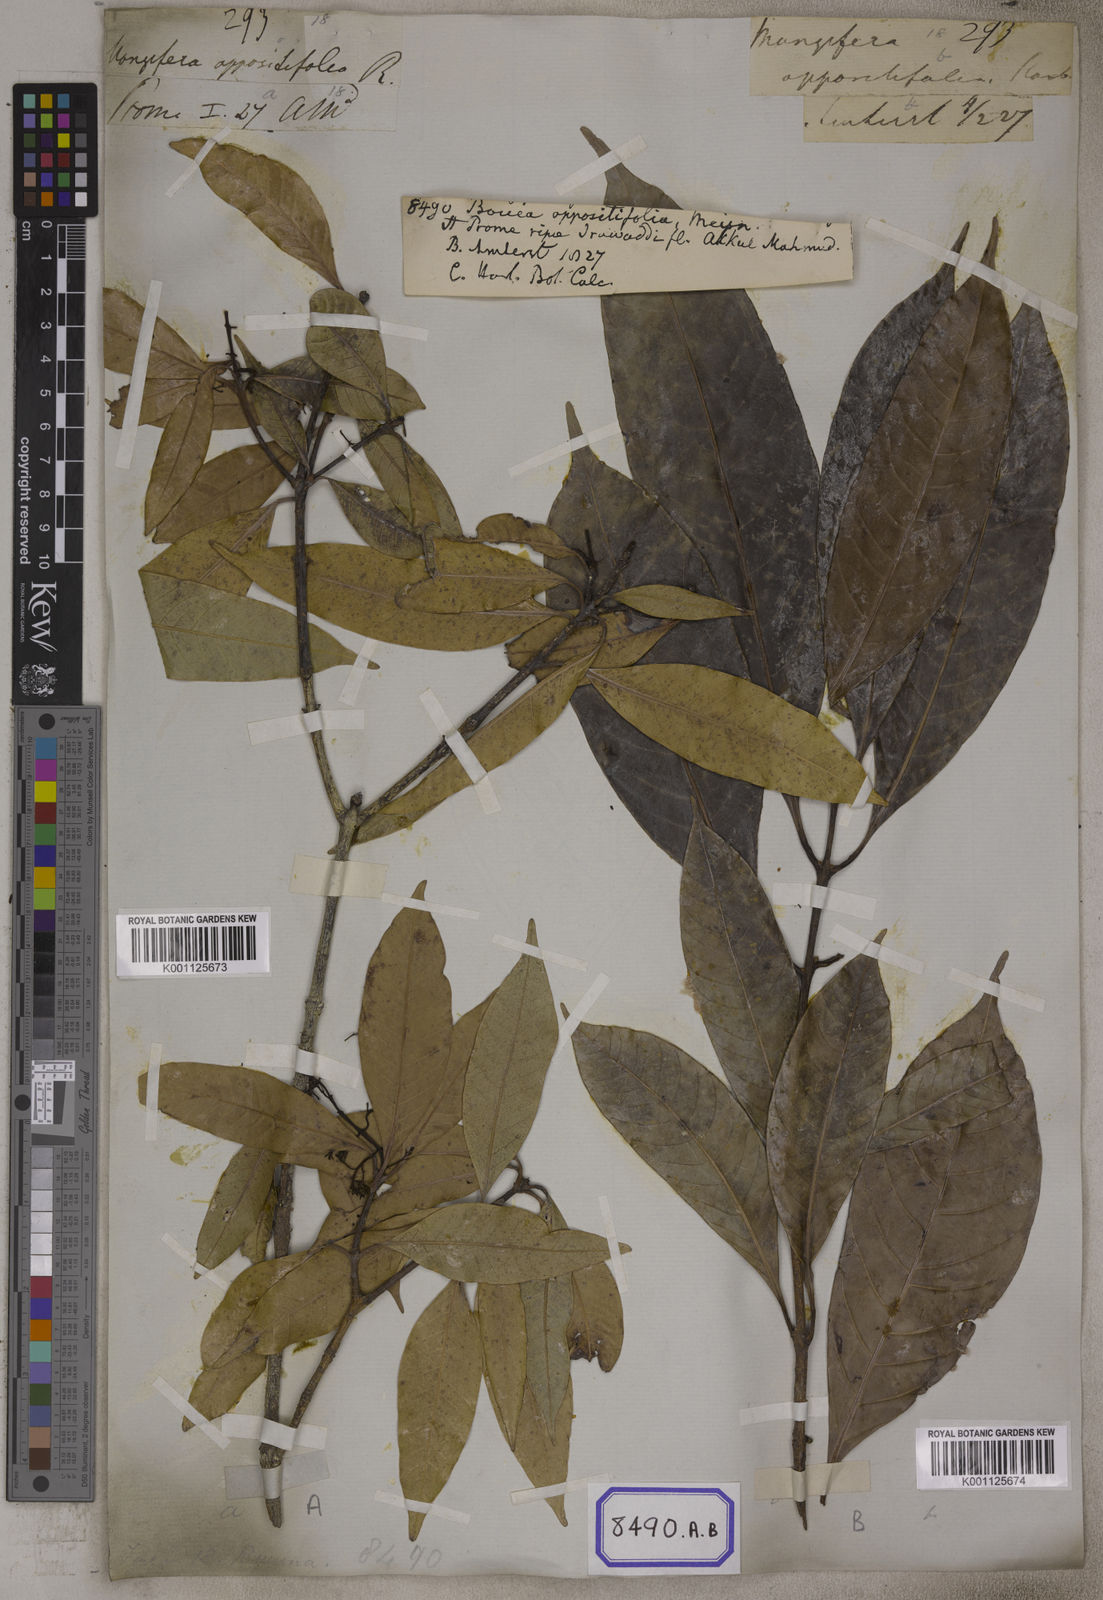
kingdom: Plantae
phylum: Tracheophyta
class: Magnoliopsida
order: Sapindales
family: Anacardiaceae
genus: Bouea
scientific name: Bouea oppositifolia
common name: Narrow-leaved kundang
